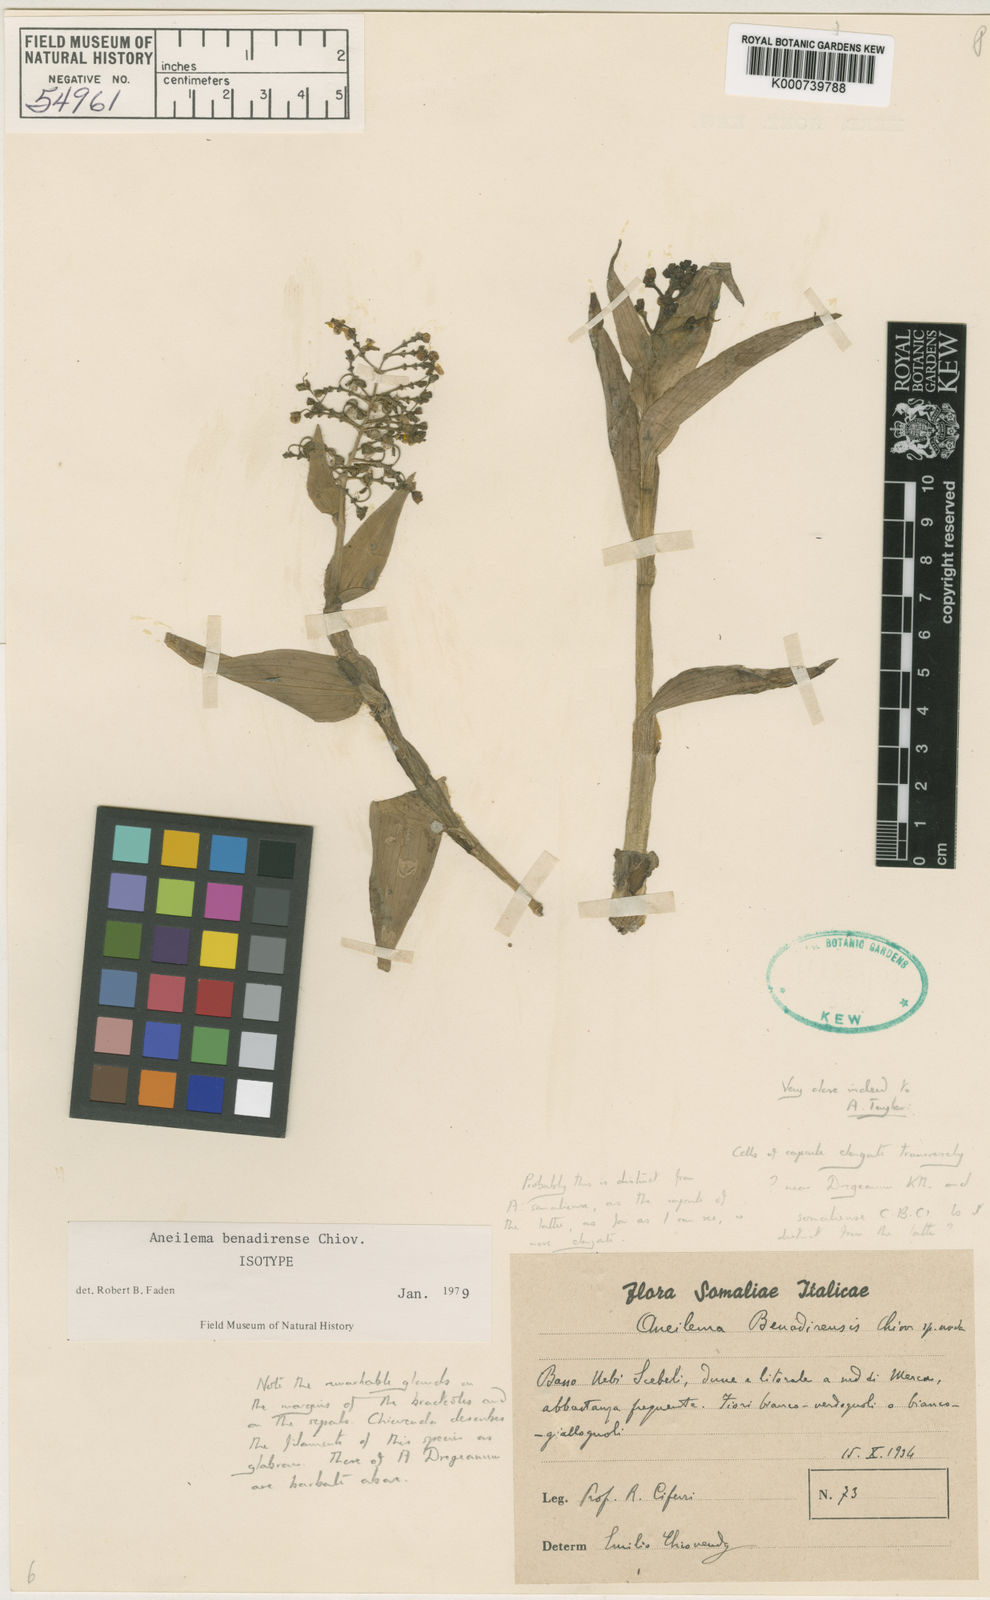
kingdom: Plantae
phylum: Tracheophyta
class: Liliopsida
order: Commelinales
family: Commelinaceae
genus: Aneilema
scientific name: Aneilema benadirense
